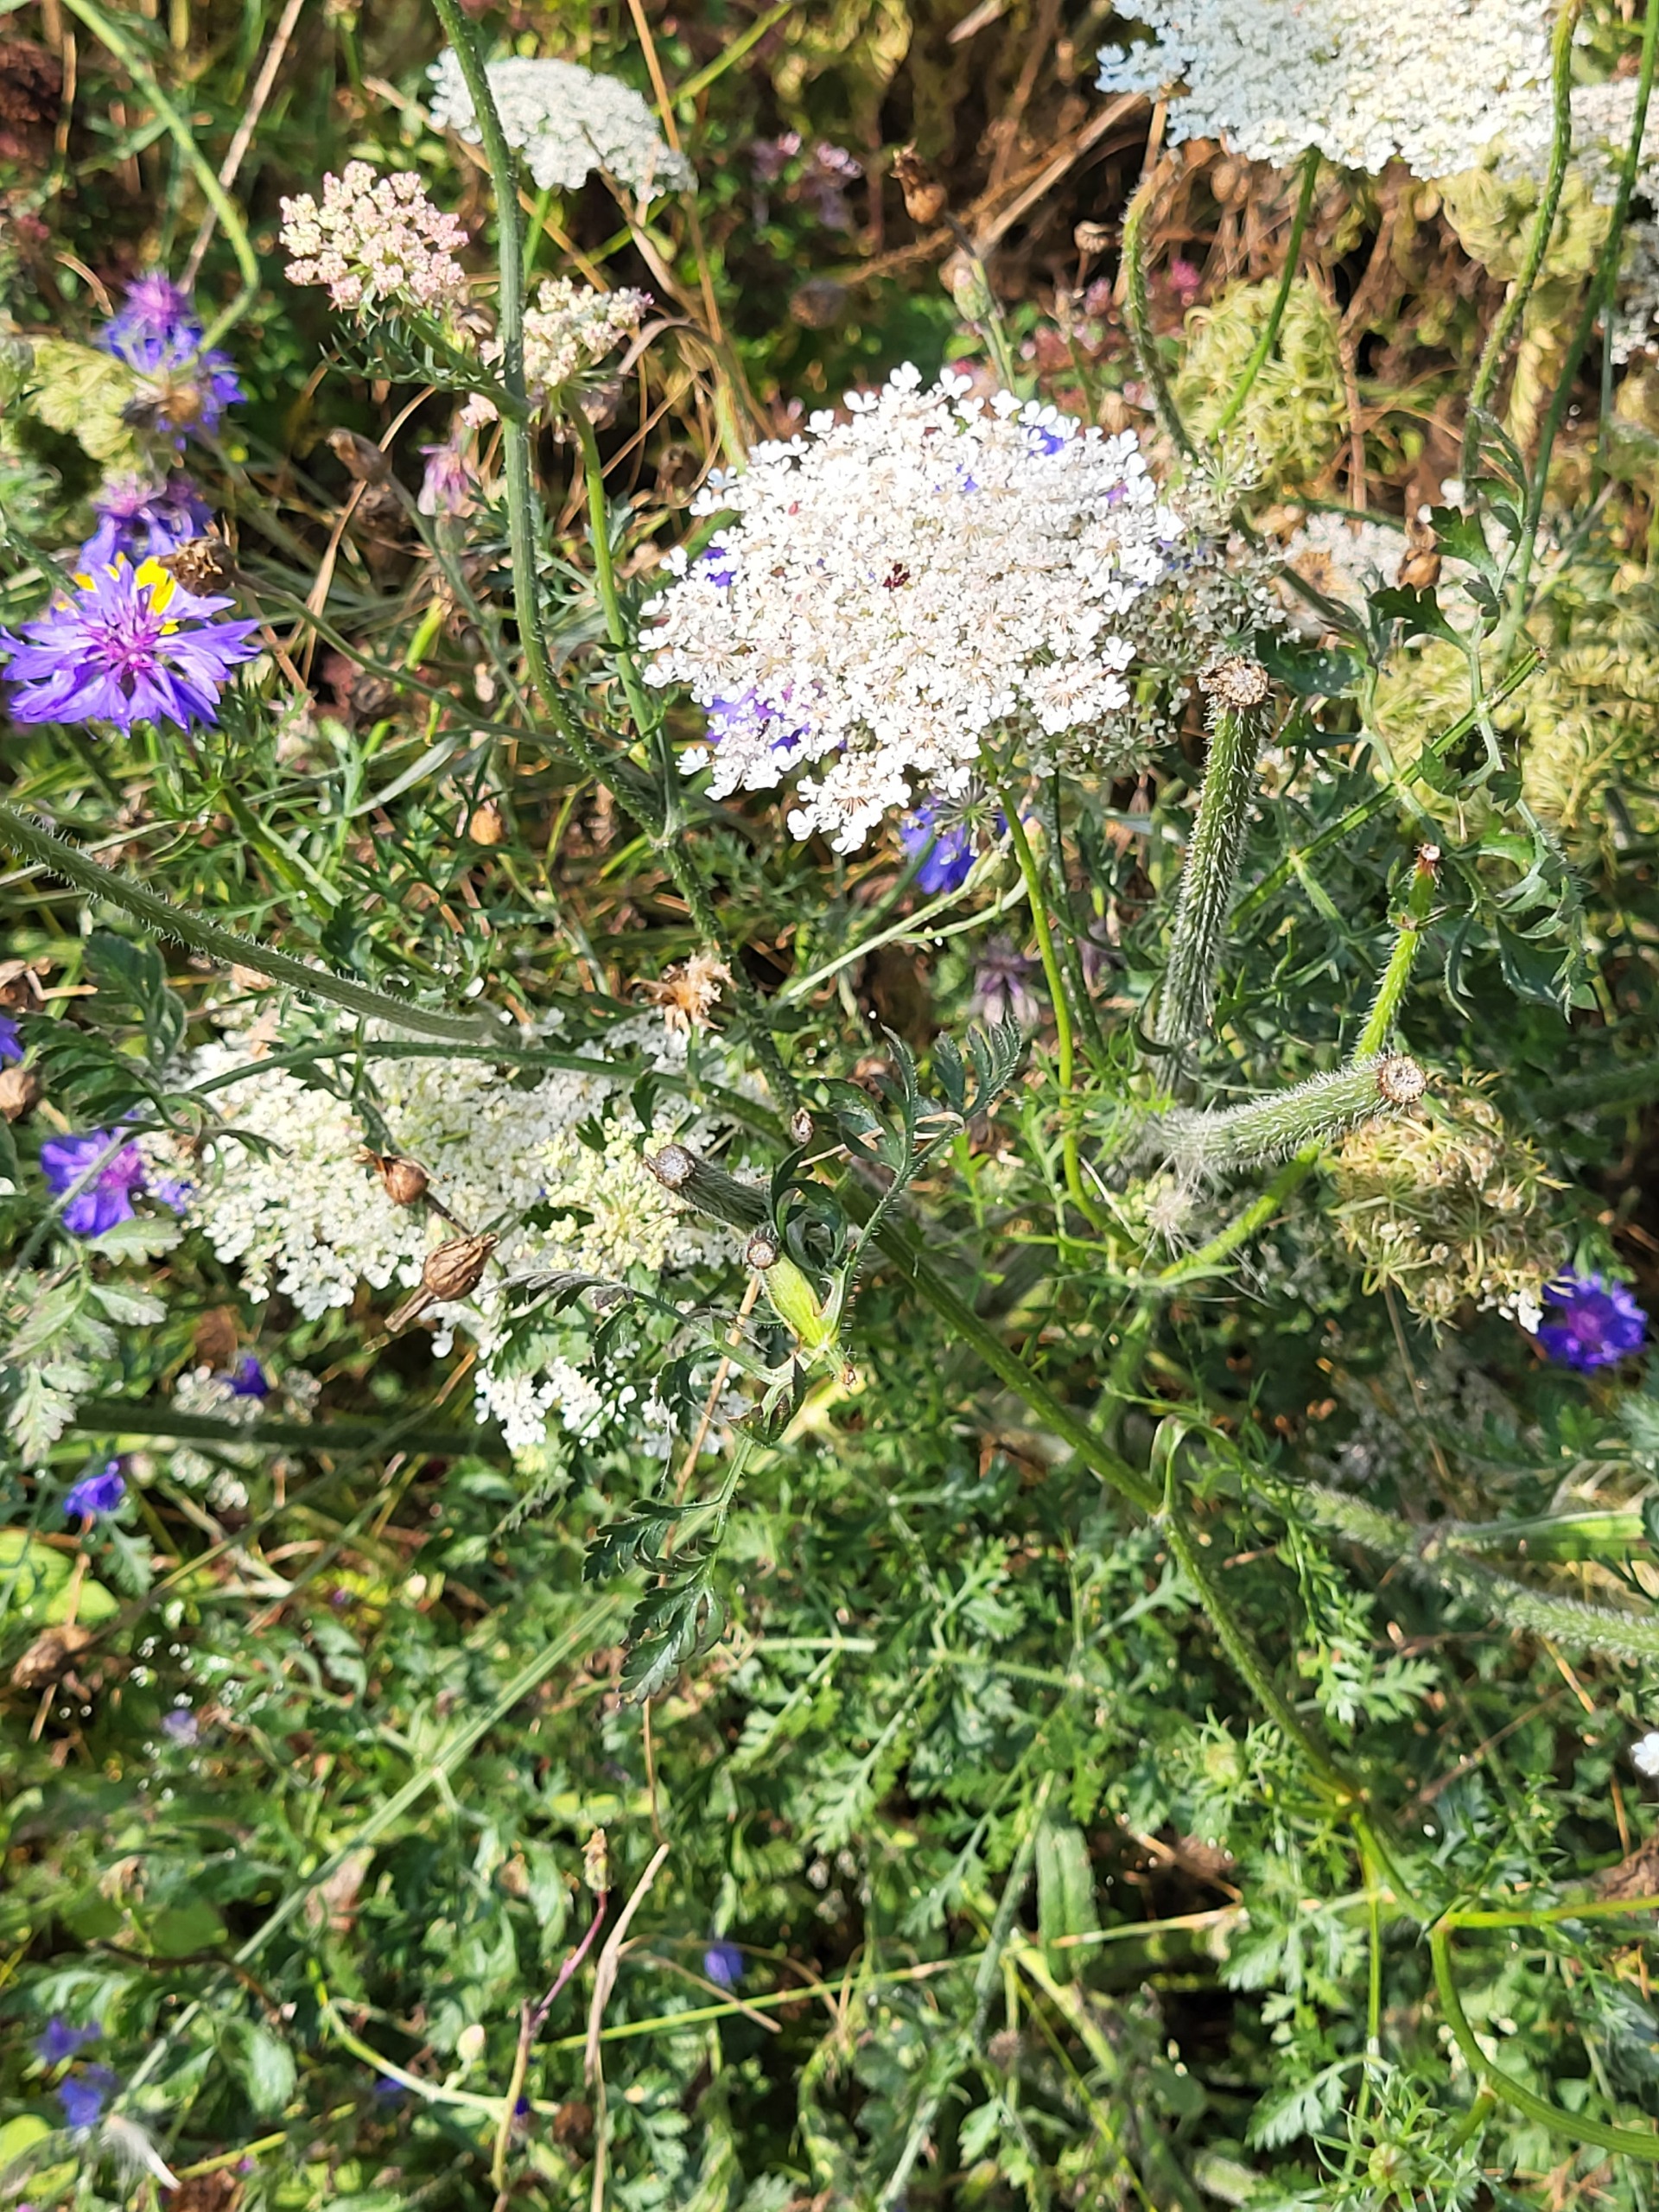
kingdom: Plantae
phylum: Tracheophyta
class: Magnoliopsida
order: Apiales
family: Apiaceae
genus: Daucus
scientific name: Daucus carota
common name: Gulerod
